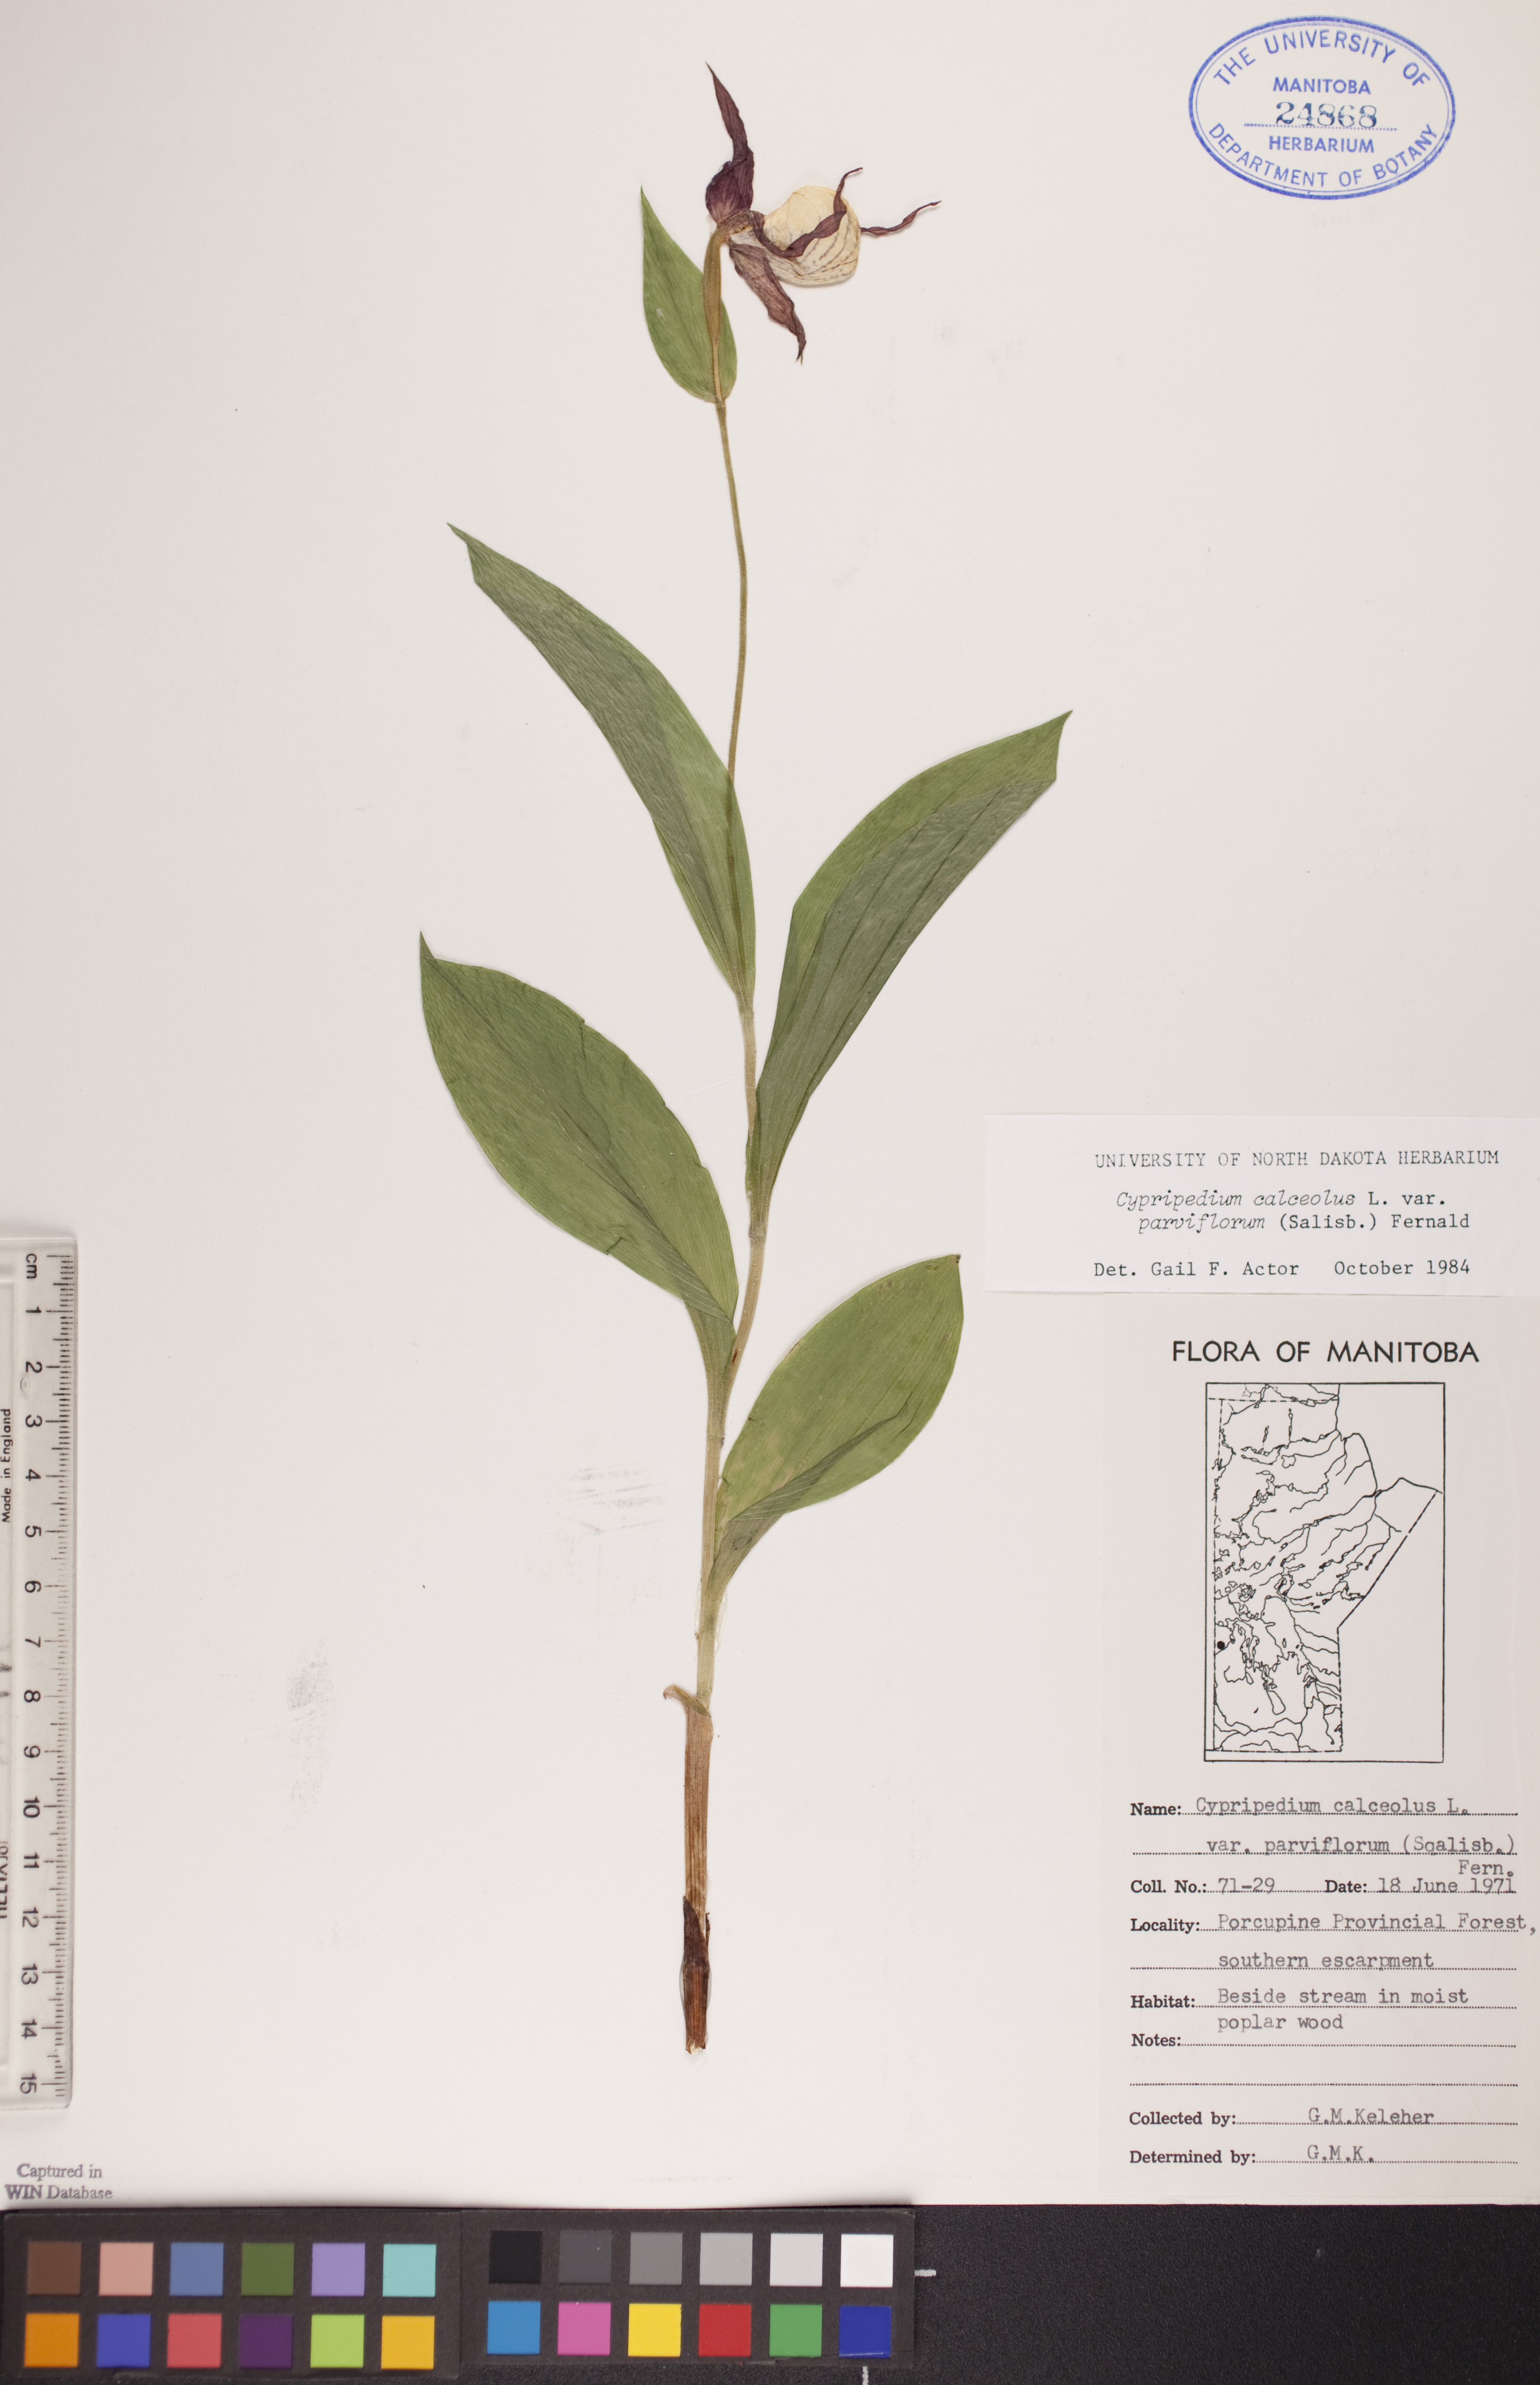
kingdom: Plantae
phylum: Tracheophyta
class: Liliopsida
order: Asparagales
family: Orchidaceae
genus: Cypripedium
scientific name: Cypripedium parviflorum
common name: American yellow lady's-slipper
